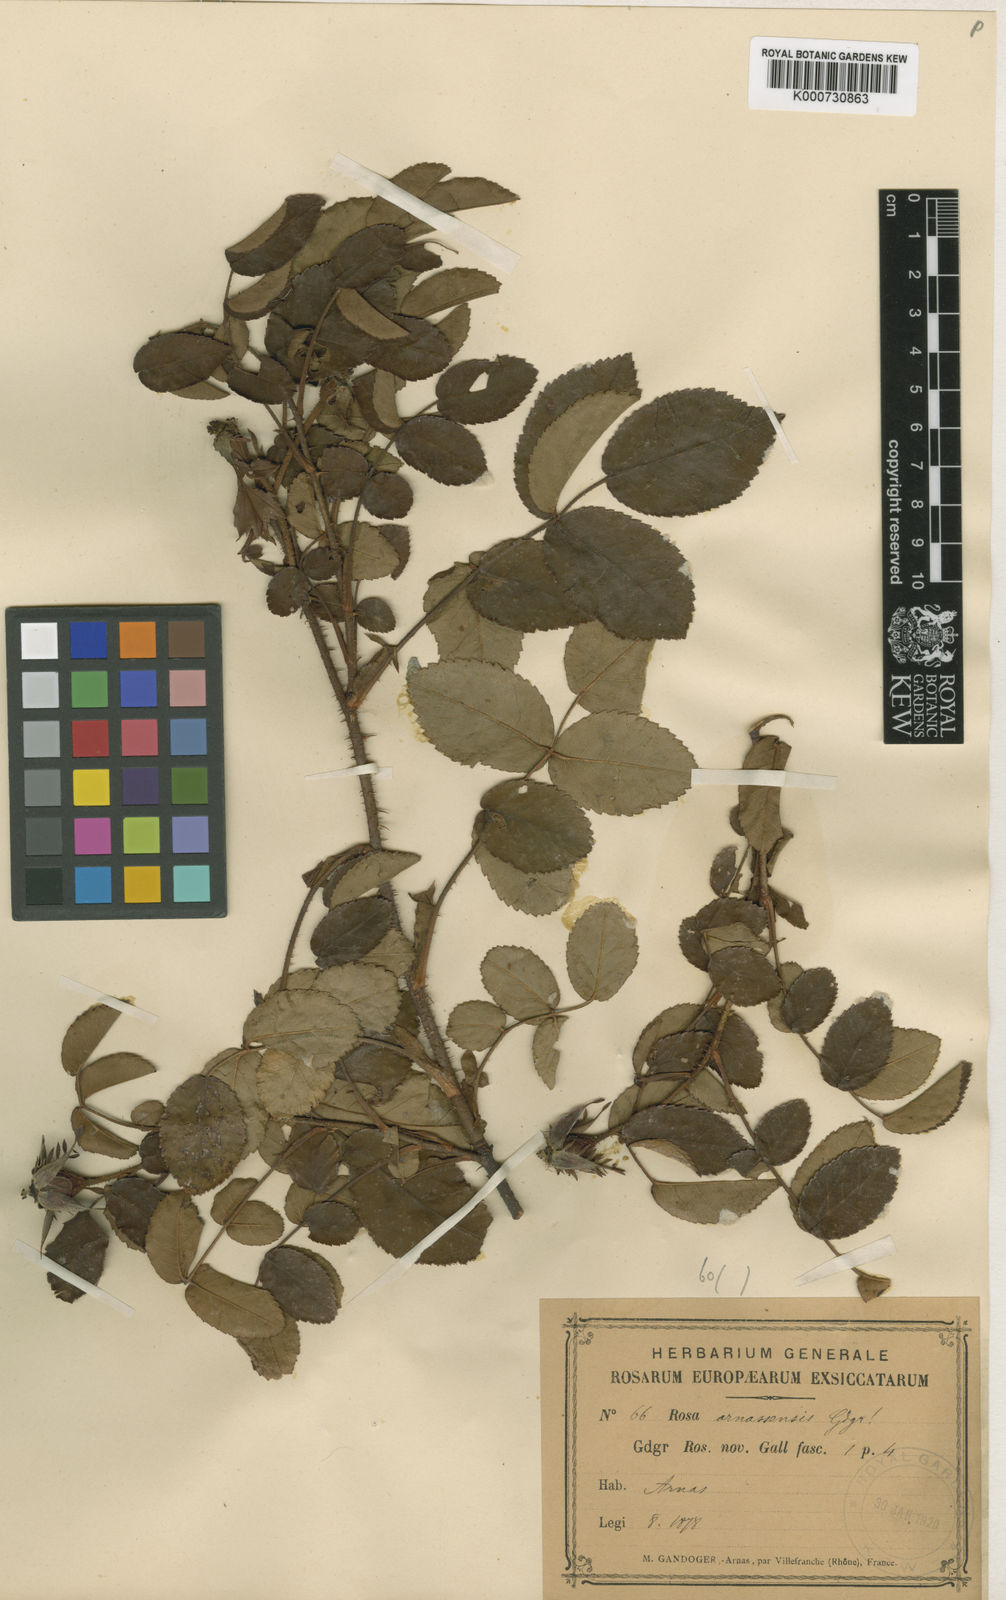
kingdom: Plantae
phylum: Tracheophyta
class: Magnoliopsida
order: Rosales
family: Rosaceae
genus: Rosa
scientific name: Rosa
